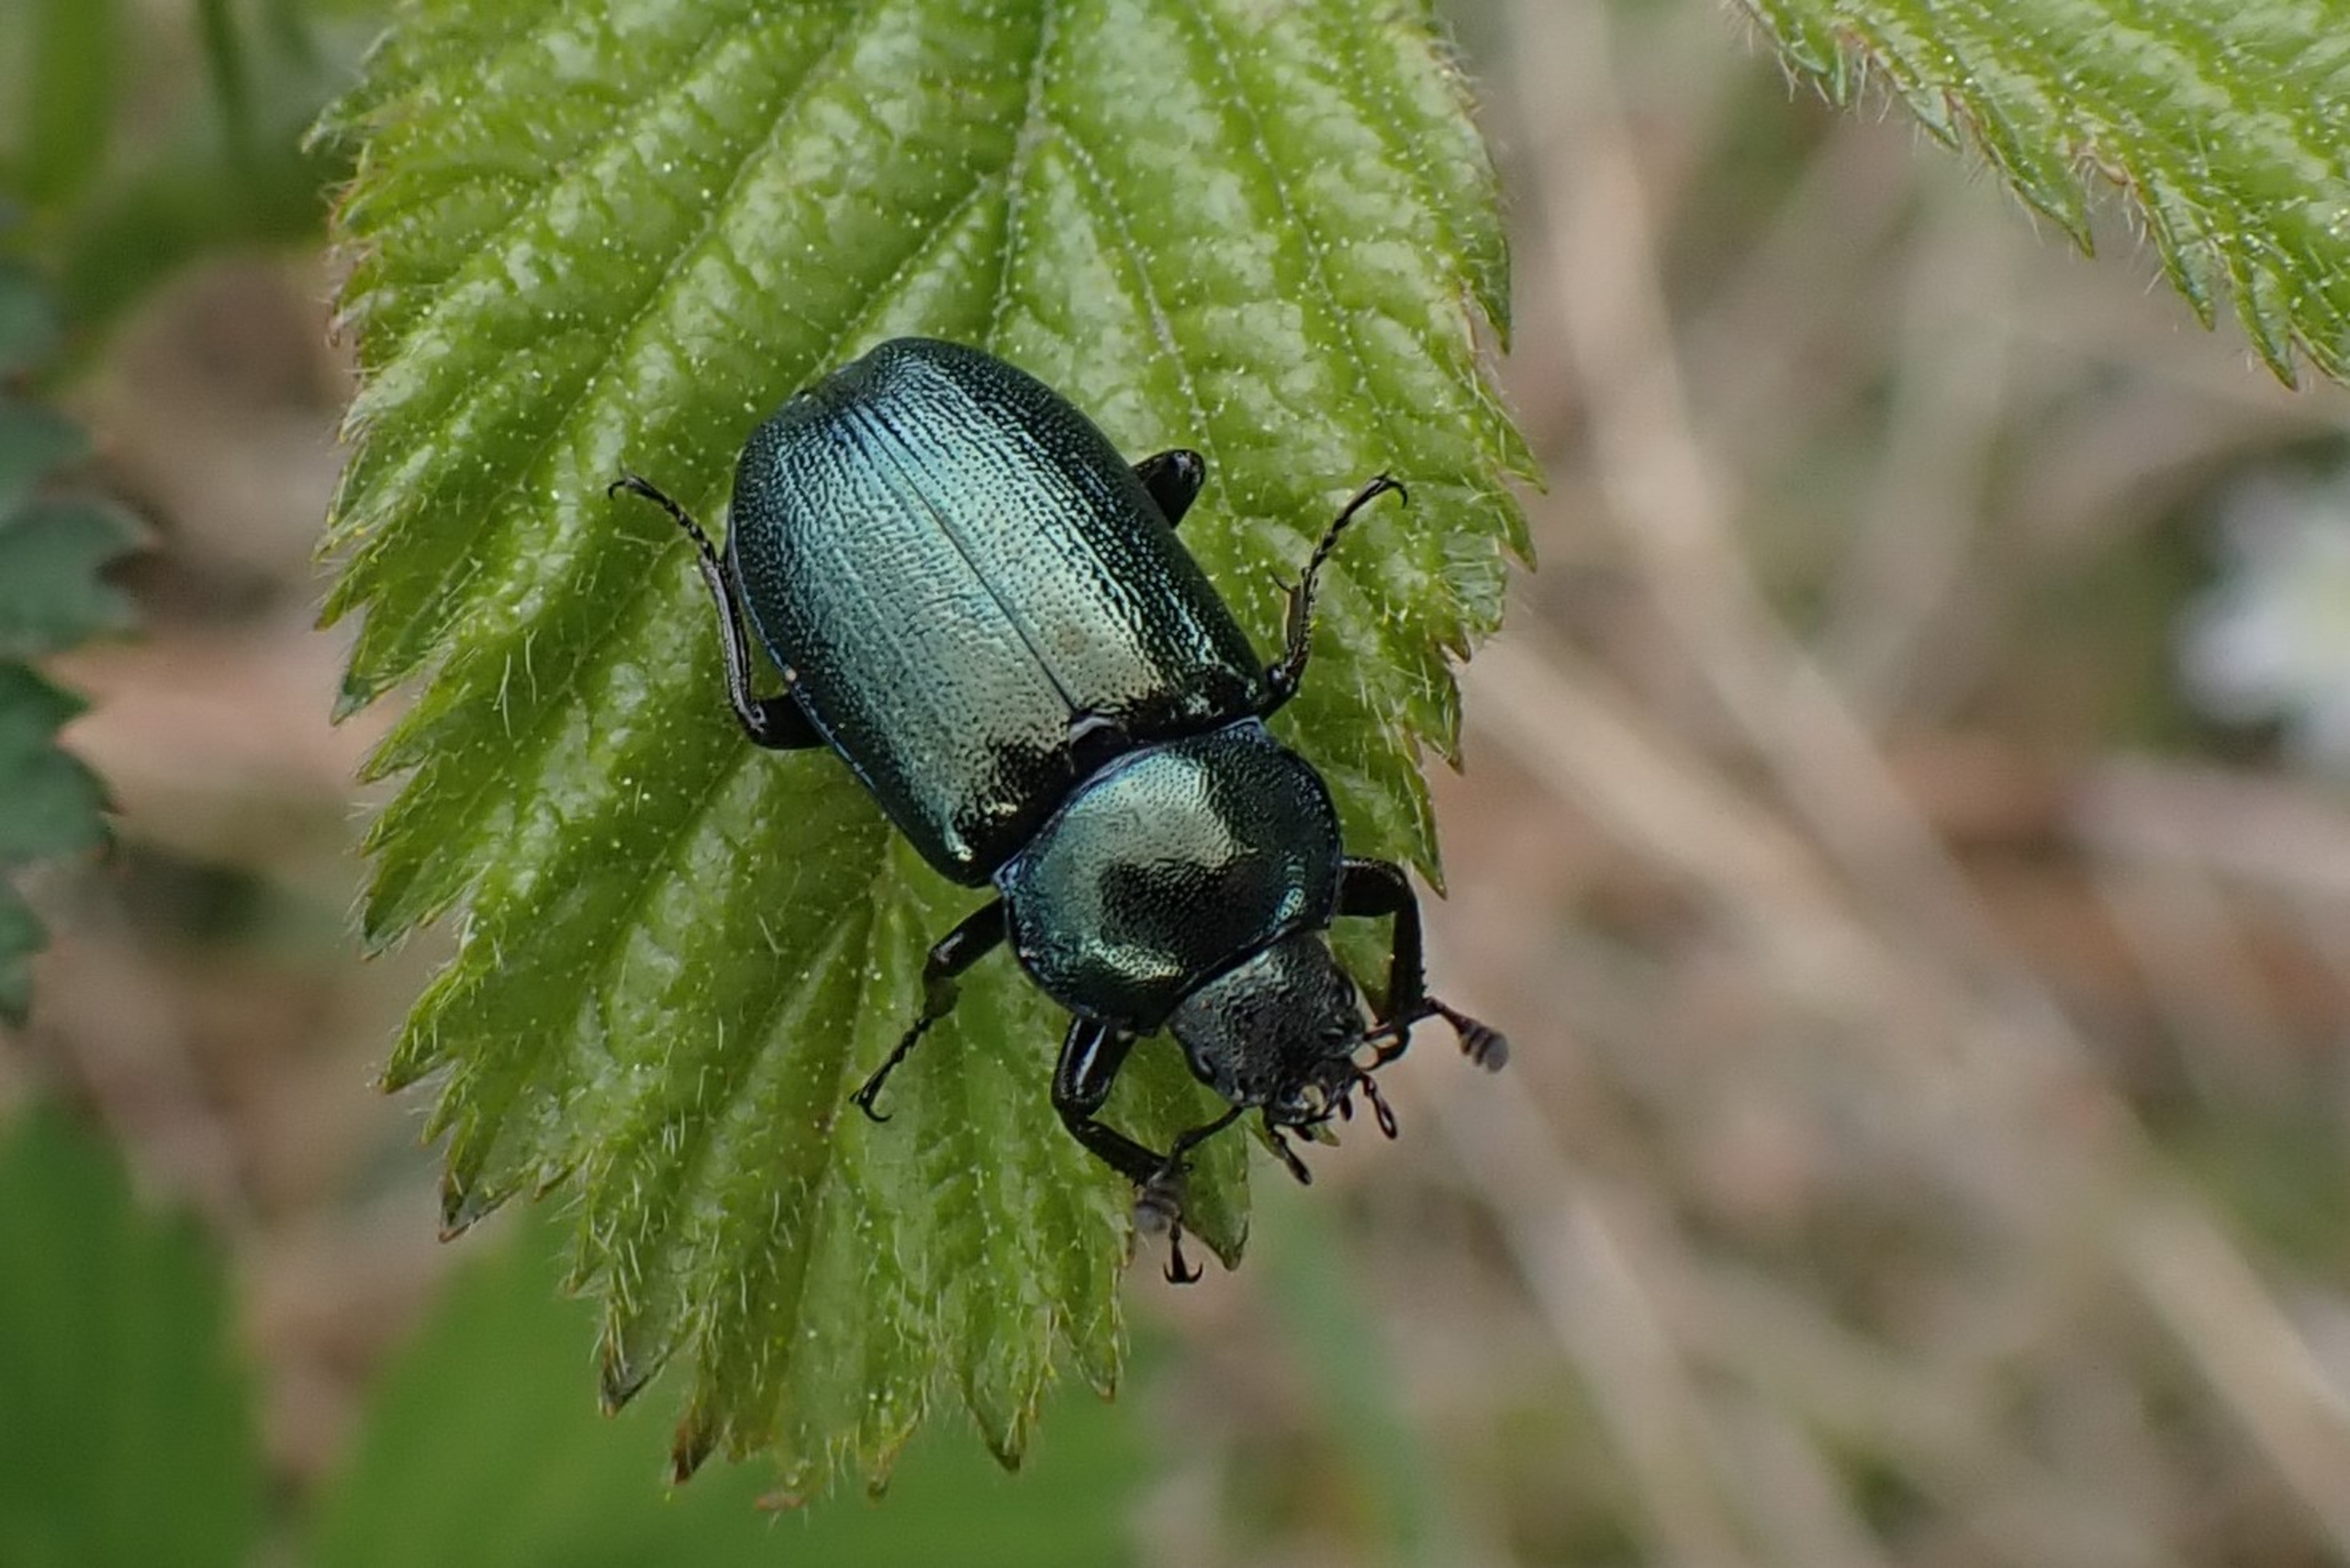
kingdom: Animalia
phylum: Arthropoda
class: Insecta
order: Coleoptera
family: Lucanidae
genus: Platycerus
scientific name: Platycerus caraboides
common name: Blåhjort
